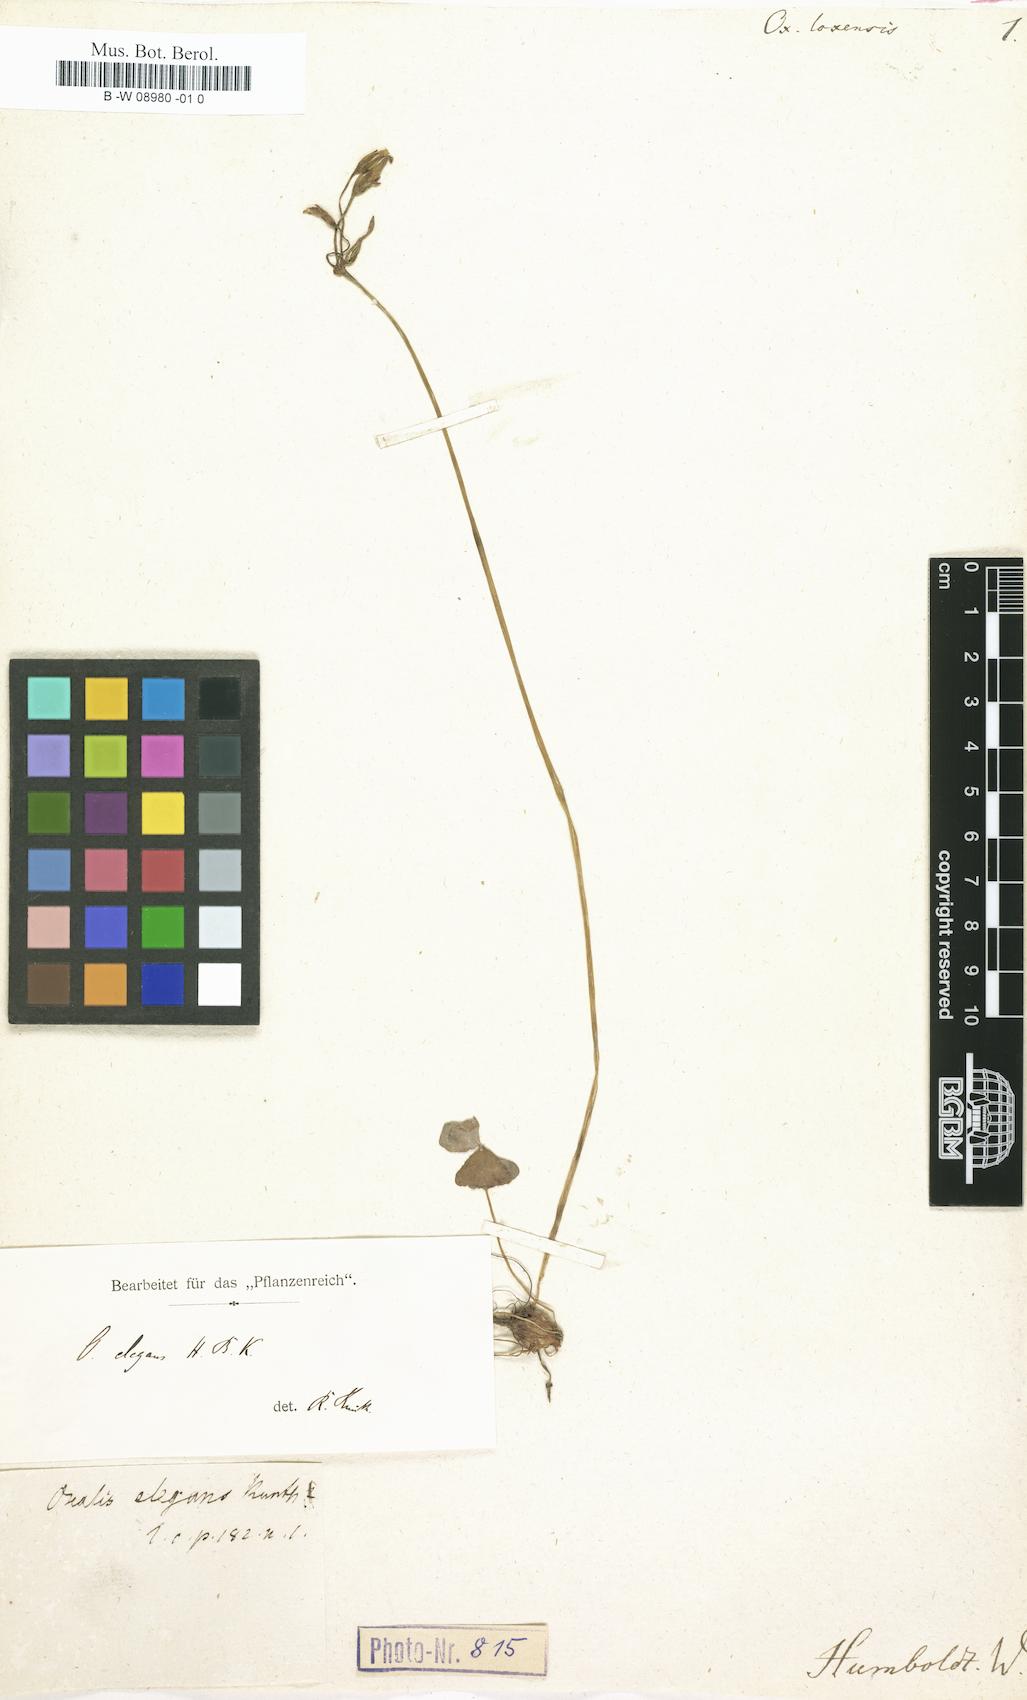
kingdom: Plantae
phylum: Tracheophyta
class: Magnoliopsida
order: Oxalidales
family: Oxalidaceae
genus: Oxalis
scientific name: Oxalis elegans
